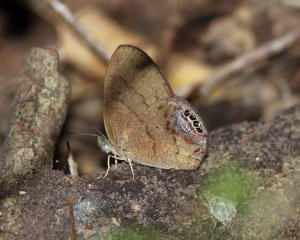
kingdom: Animalia
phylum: Arthropoda
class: Insecta
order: Lepidoptera
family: Nymphalidae
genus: Euptychia
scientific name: Euptychia cornelius
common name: Gemmed Satyr
